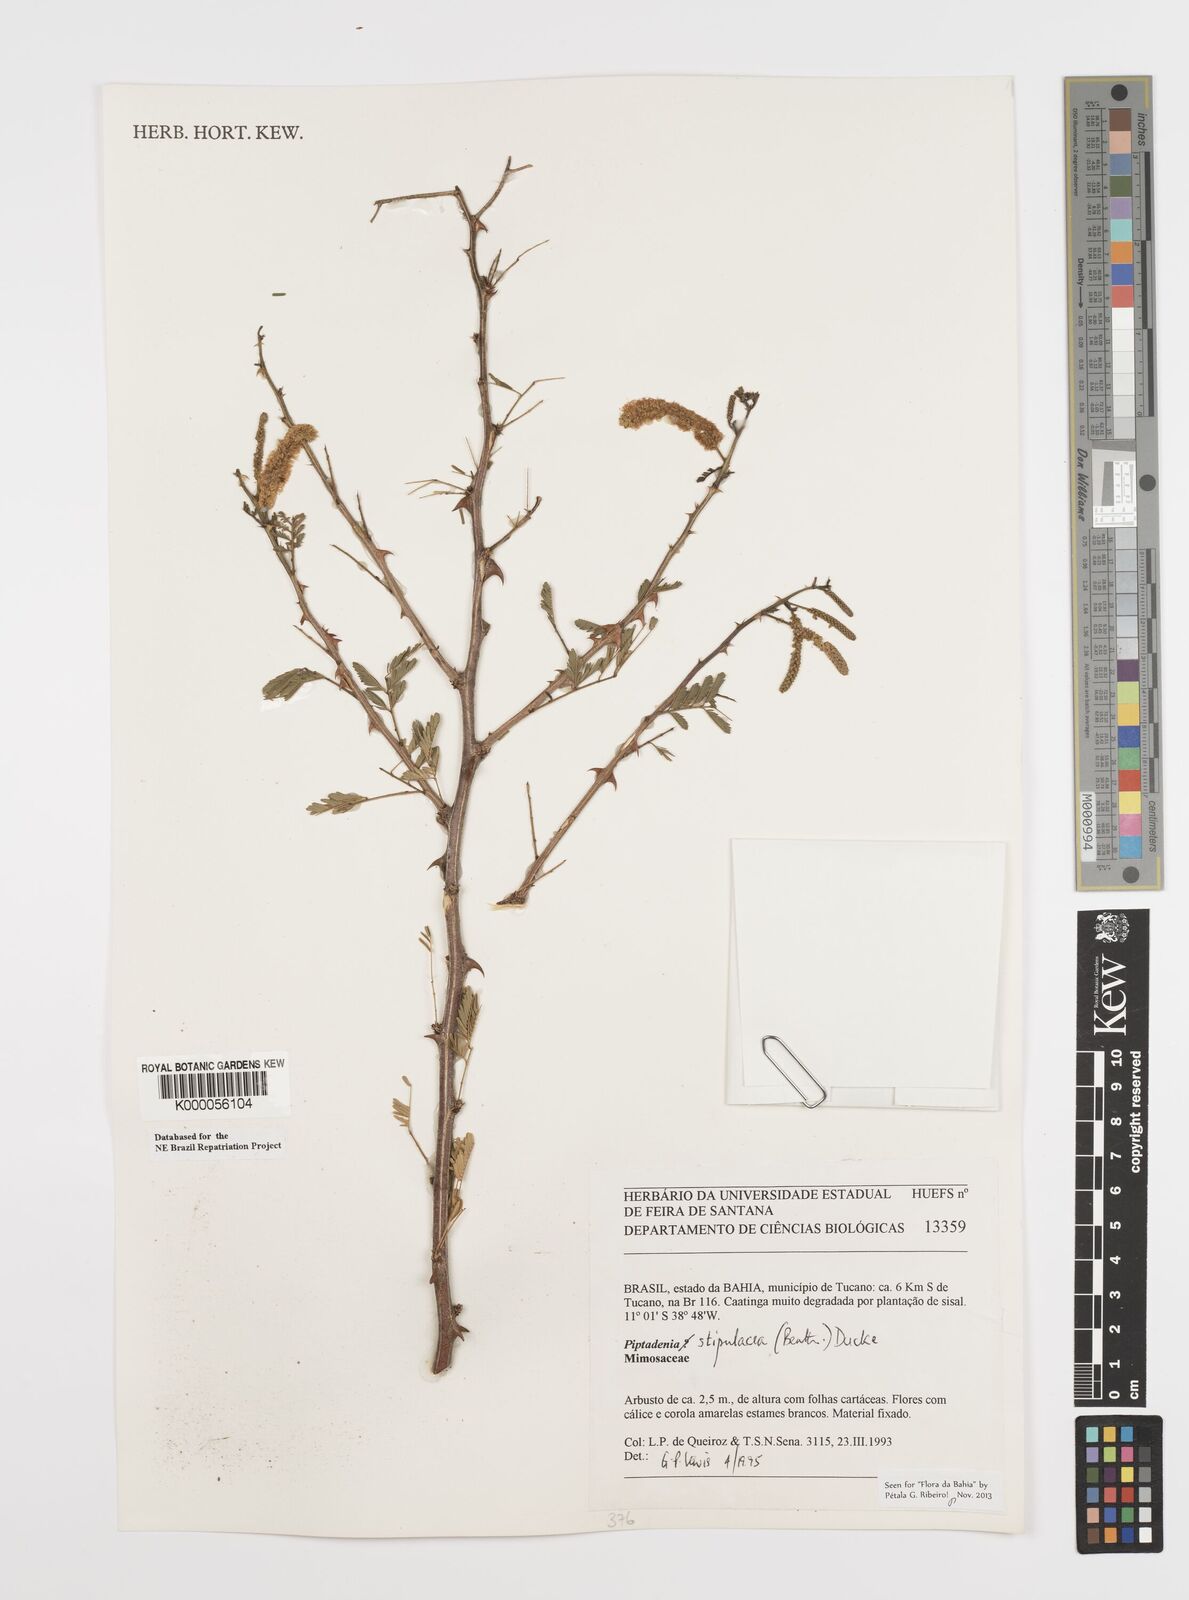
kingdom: Plantae
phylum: Tracheophyta
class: Magnoliopsida
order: Fabales
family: Fabaceae
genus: Piptadenia
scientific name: Piptadenia retusa
